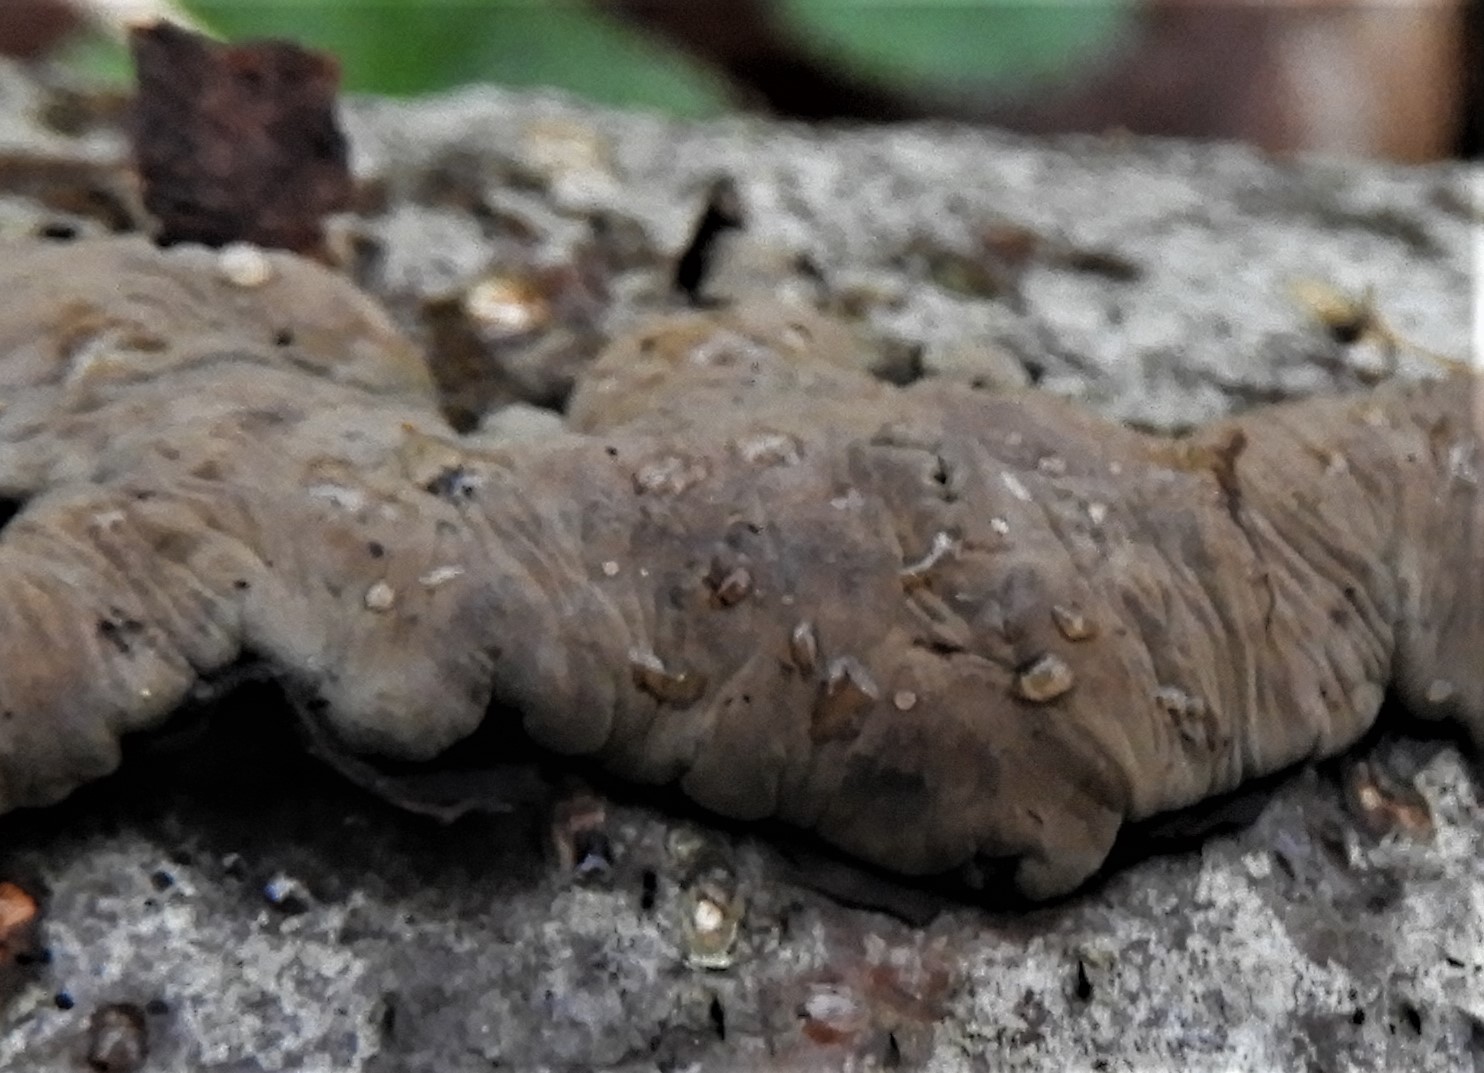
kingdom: Fungi
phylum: Ascomycota
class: Sordariomycetes
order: Xylariales
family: Hypoxylaceae
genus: Jackrogersella
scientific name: Jackrogersella
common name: kulbær
